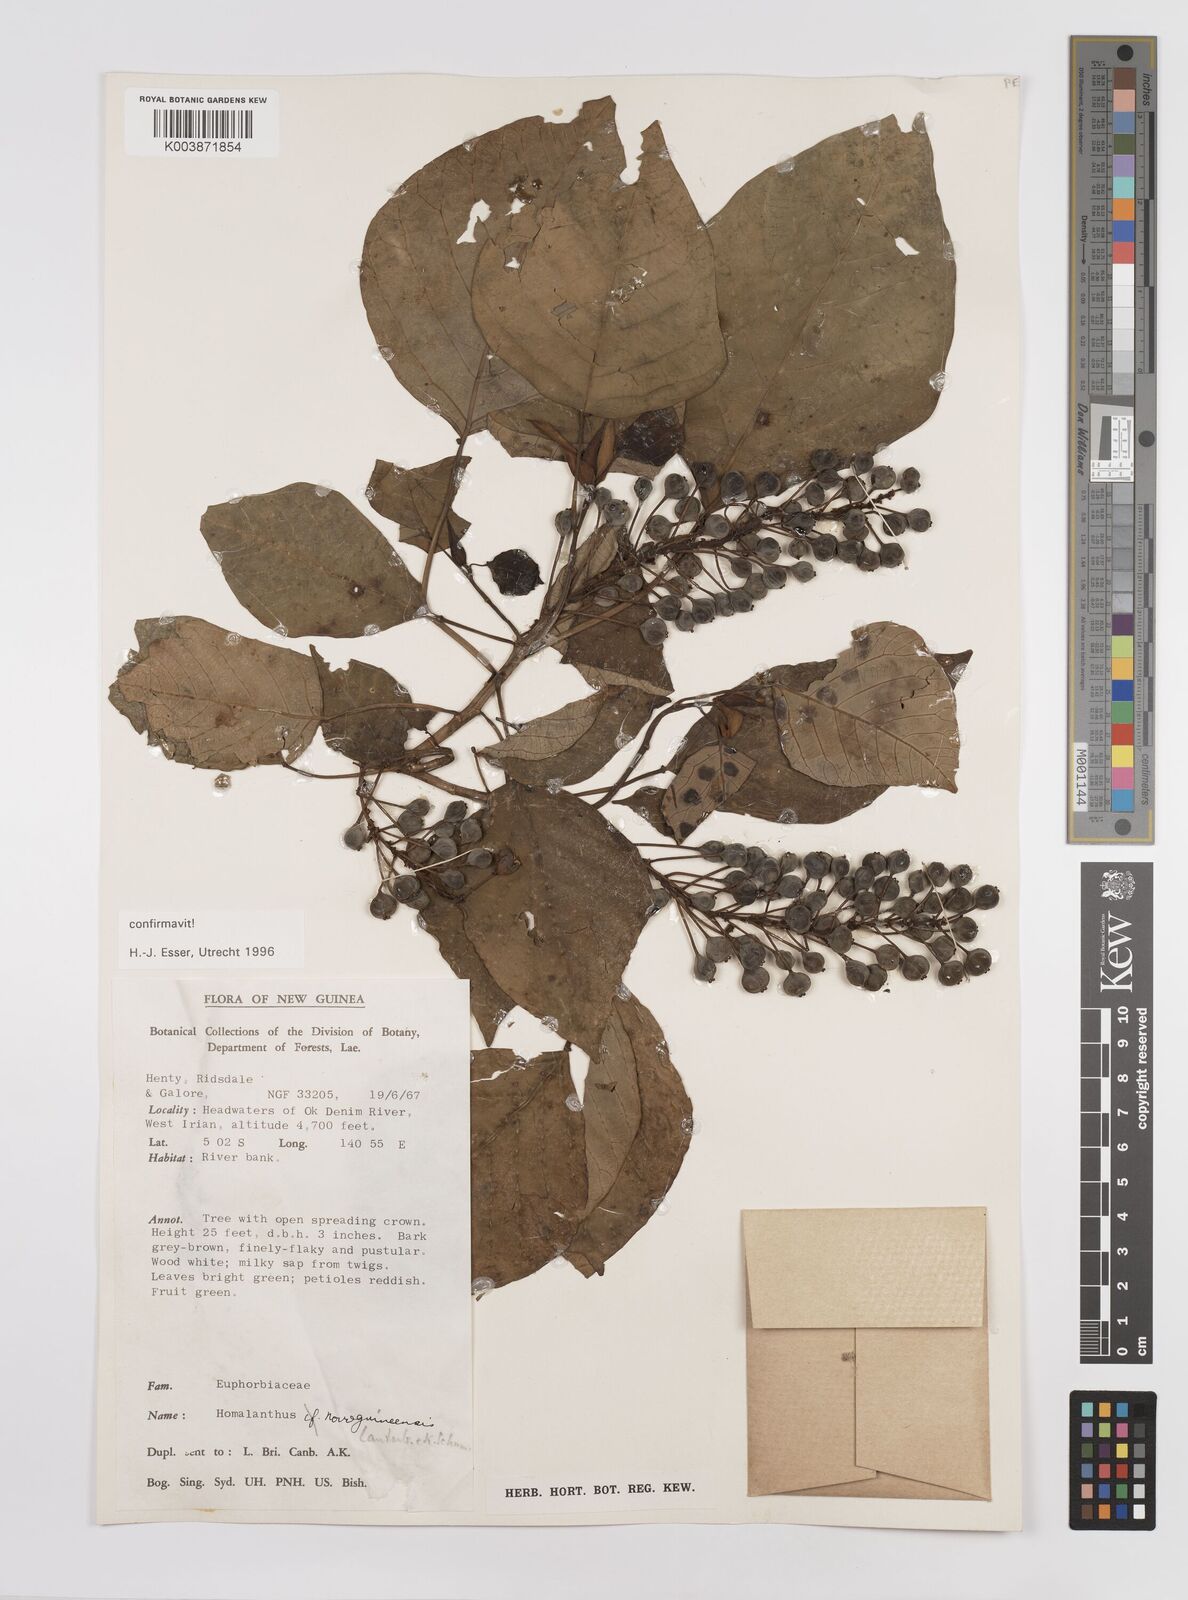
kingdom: Plantae
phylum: Tracheophyta
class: Magnoliopsida
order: Malpighiales
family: Euphorbiaceae
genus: Homalanthus
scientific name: Homalanthus novoguineensis
